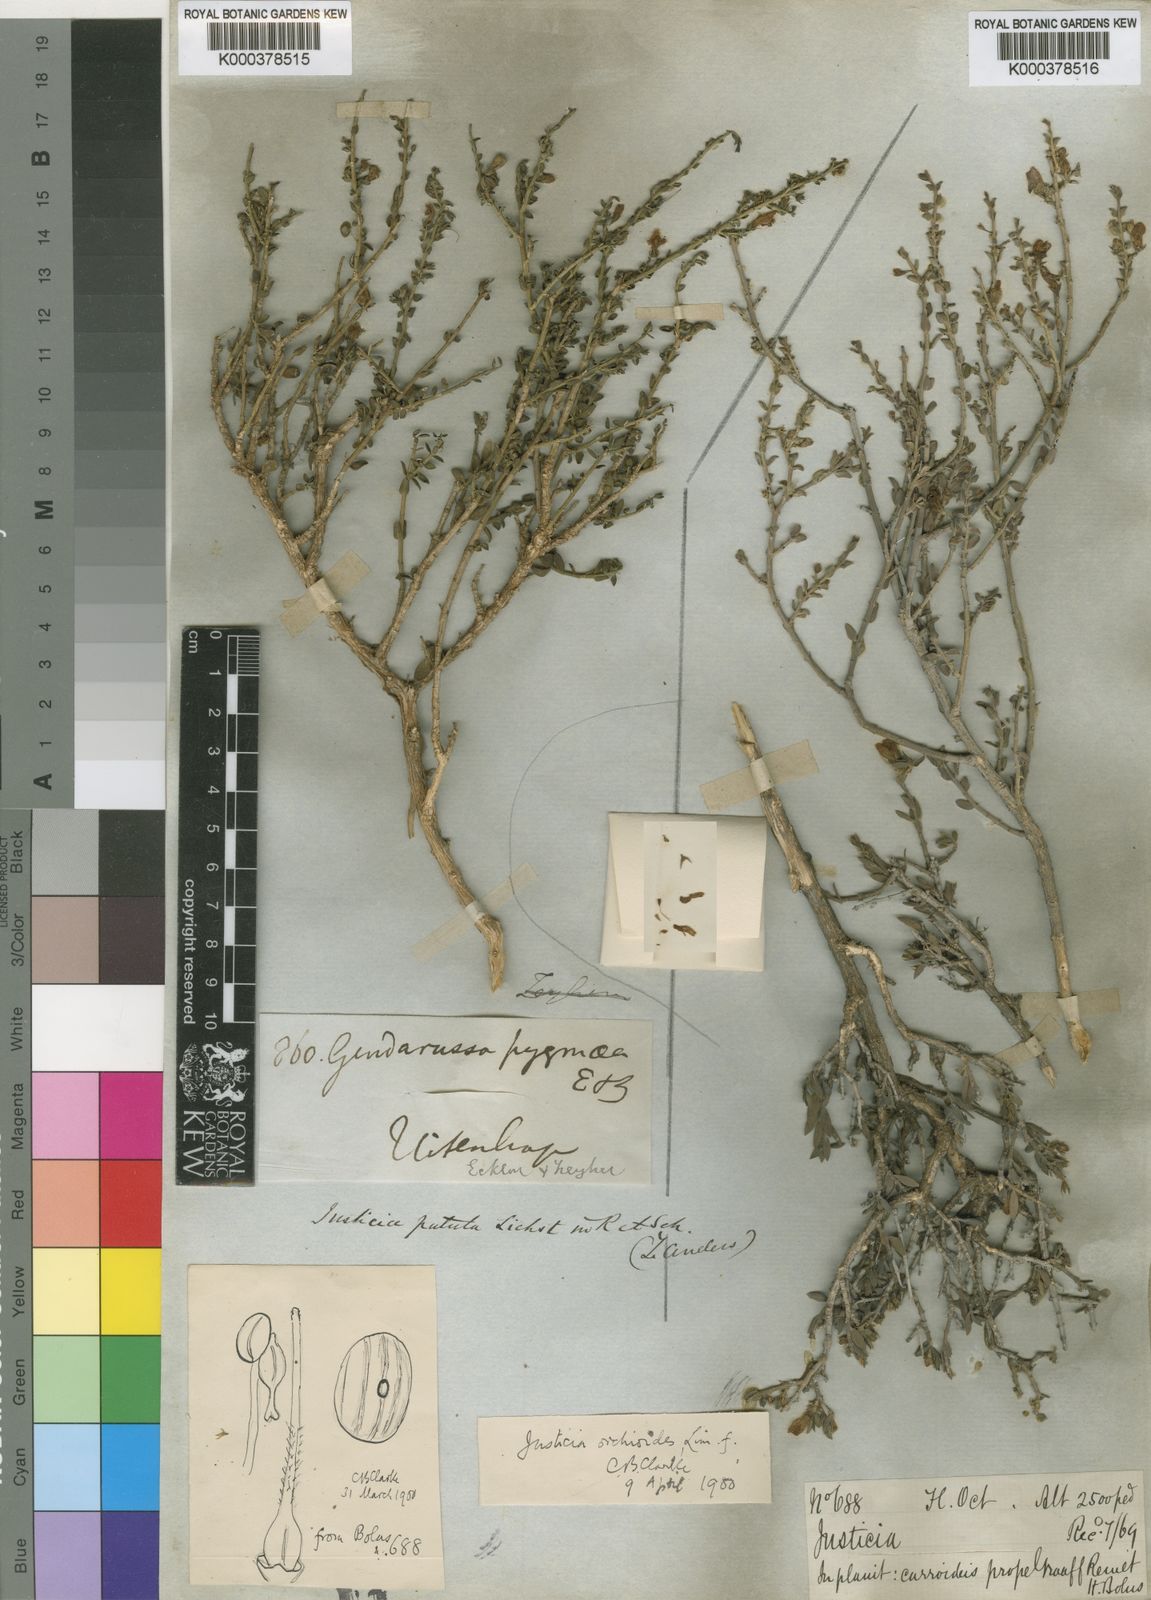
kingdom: Plantae
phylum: Tracheophyta
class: Magnoliopsida
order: Lamiales
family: Acanthaceae
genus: Justicia
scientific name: Justicia orchioides
